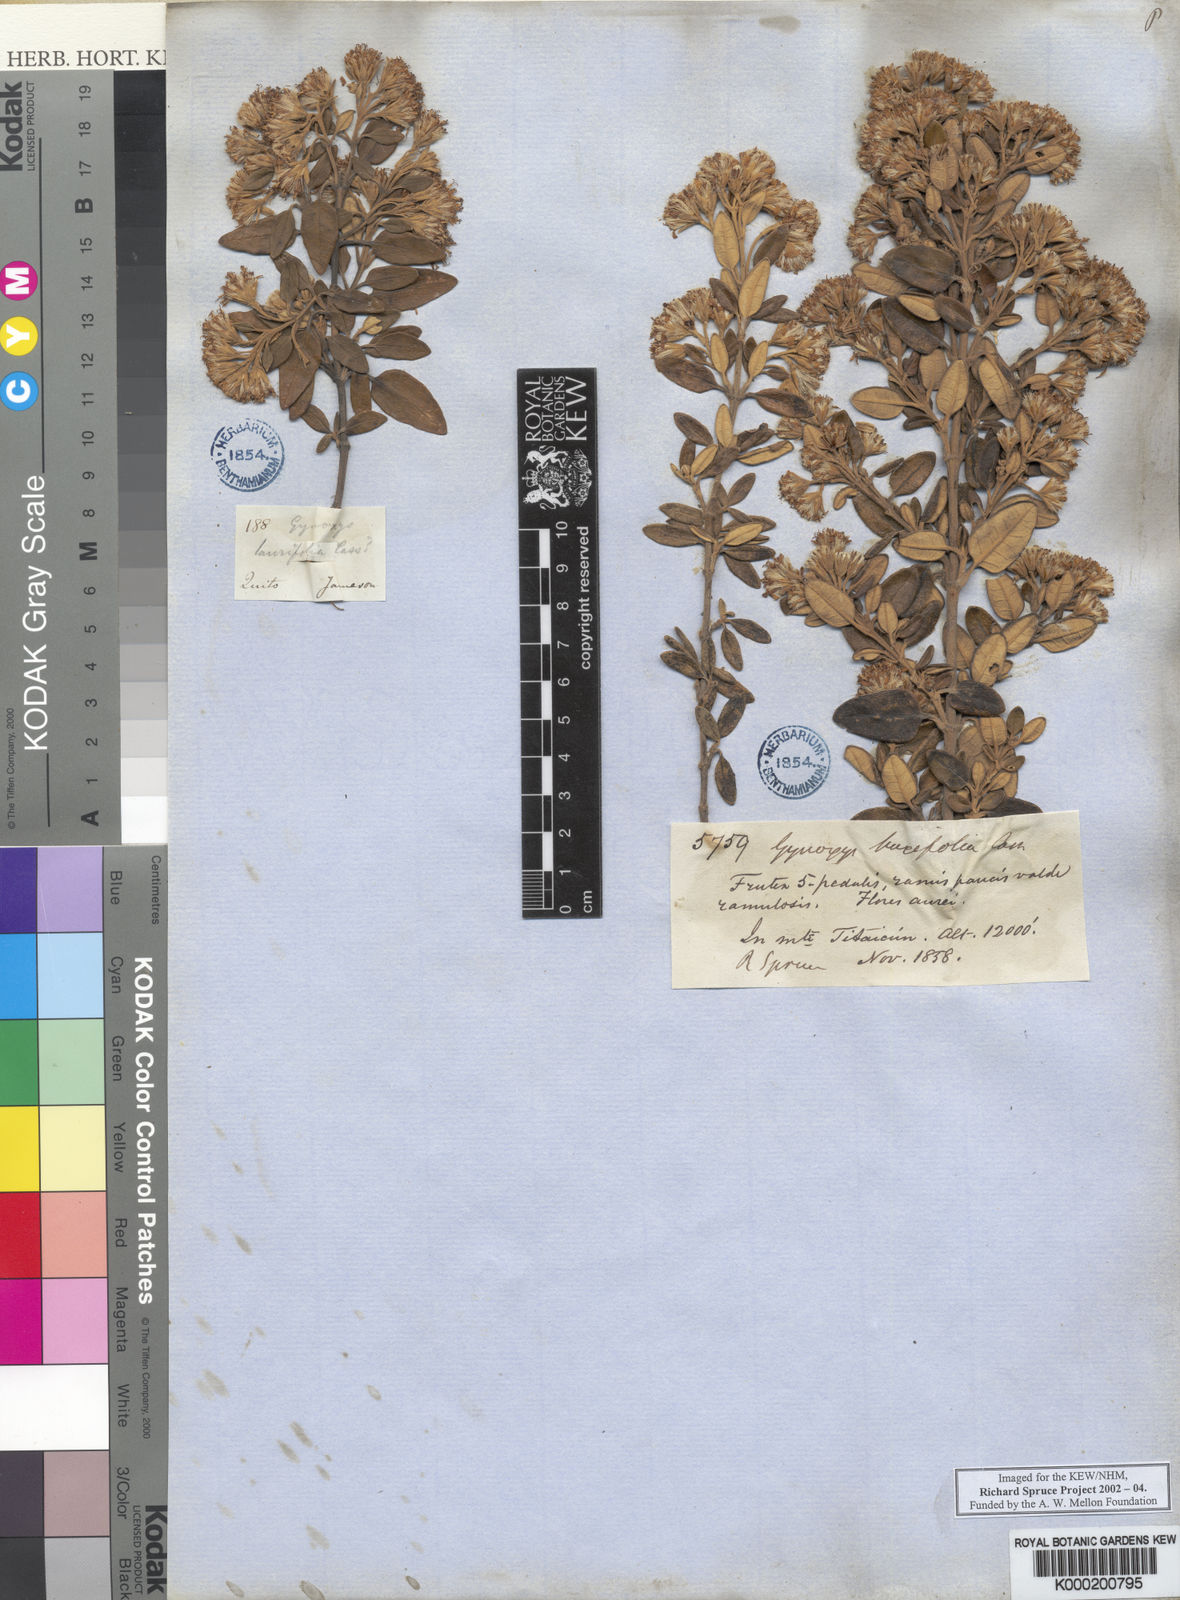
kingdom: Plantae
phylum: Tracheophyta
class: Magnoliopsida
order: Asterales
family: Asteraceae
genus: Gynoxys
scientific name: Gynoxys buxifolia
